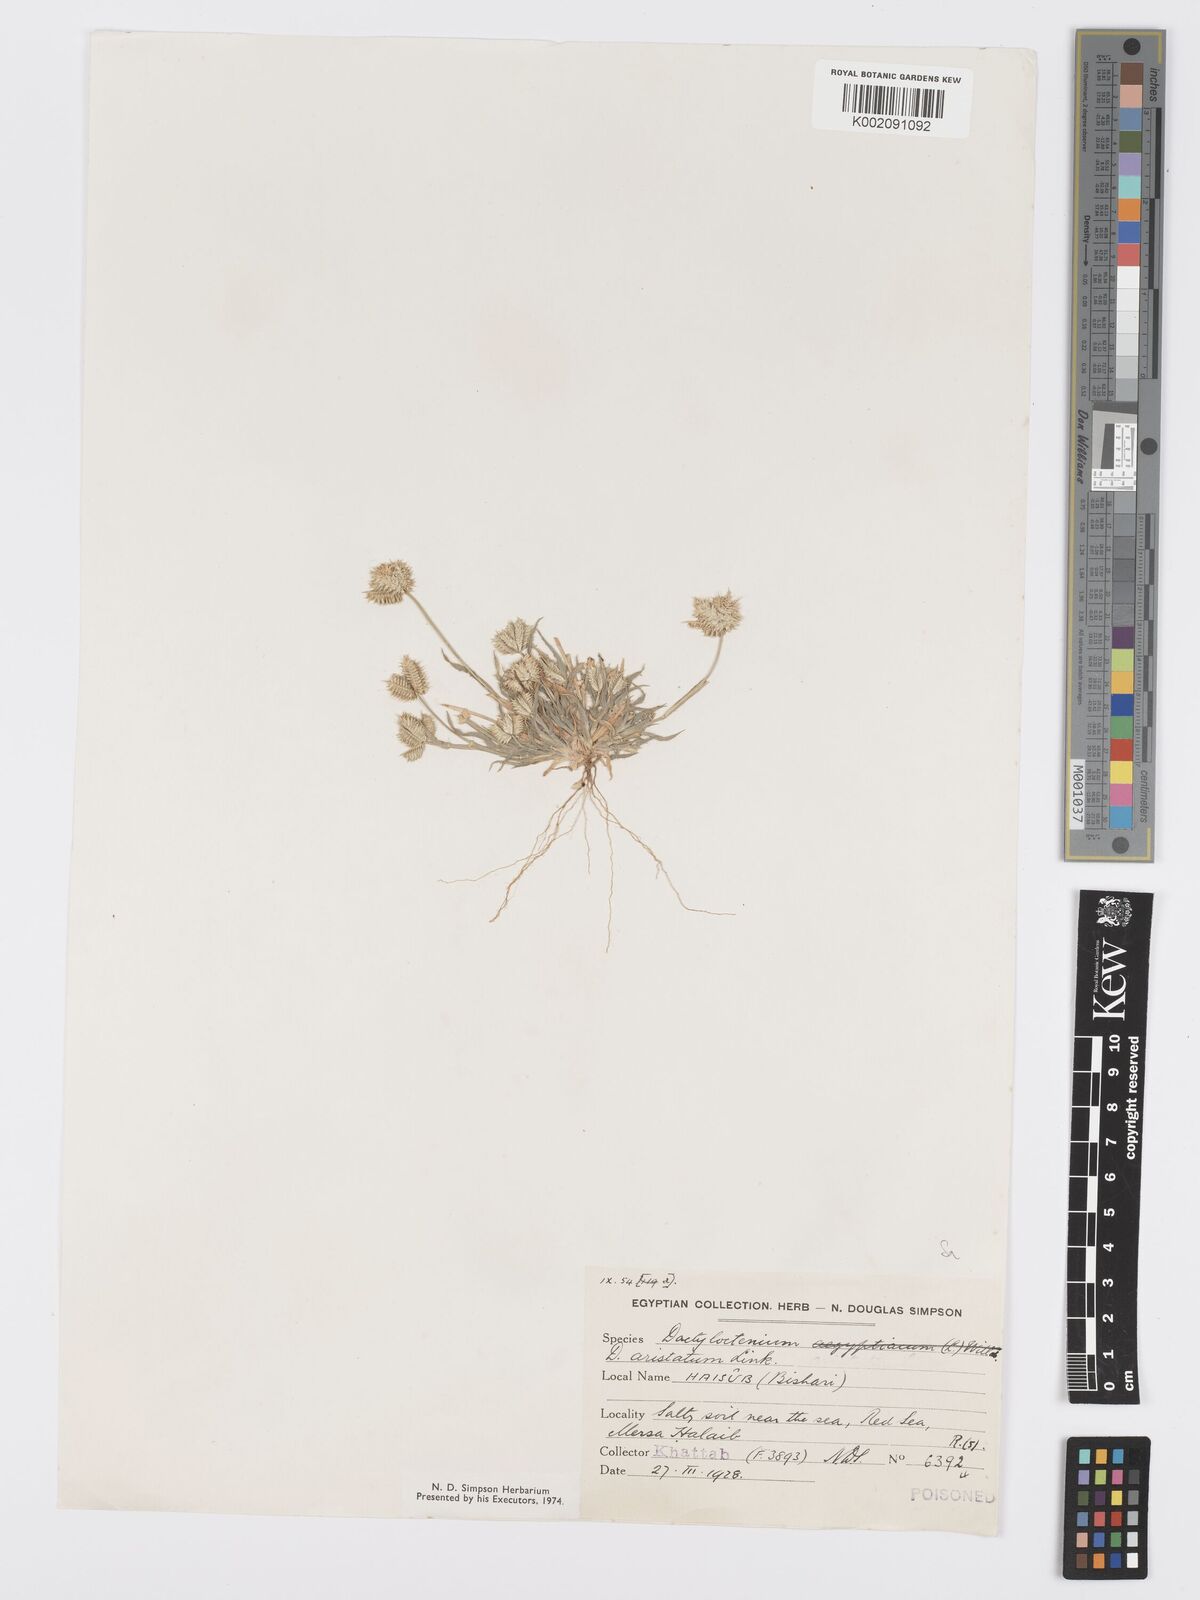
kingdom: Plantae
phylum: Tracheophyta
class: Liliopsida
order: Poales
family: Poaceae
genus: Dactyloctenium
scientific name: Dactyloctenium aristatum
